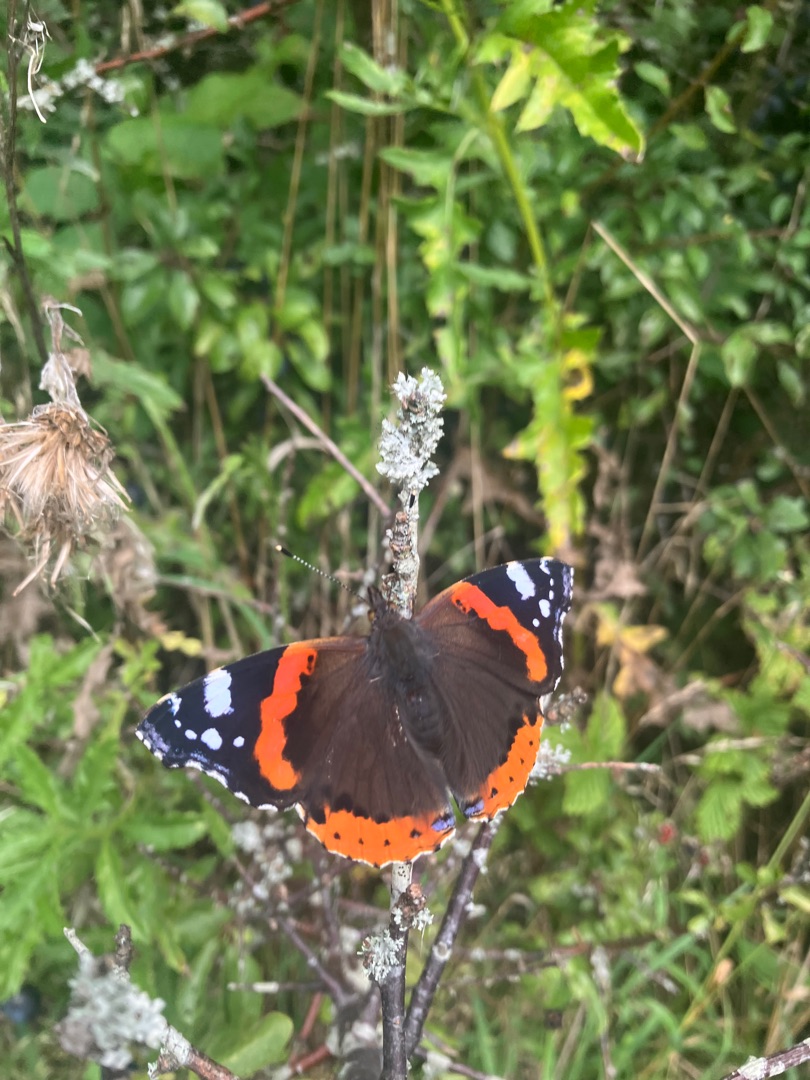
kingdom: Animalia
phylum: Arthropoda
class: Insecta
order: Lepidoptera
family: Nymphalidae
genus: Vanessa
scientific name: Vanessa atalanta
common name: Admiral
